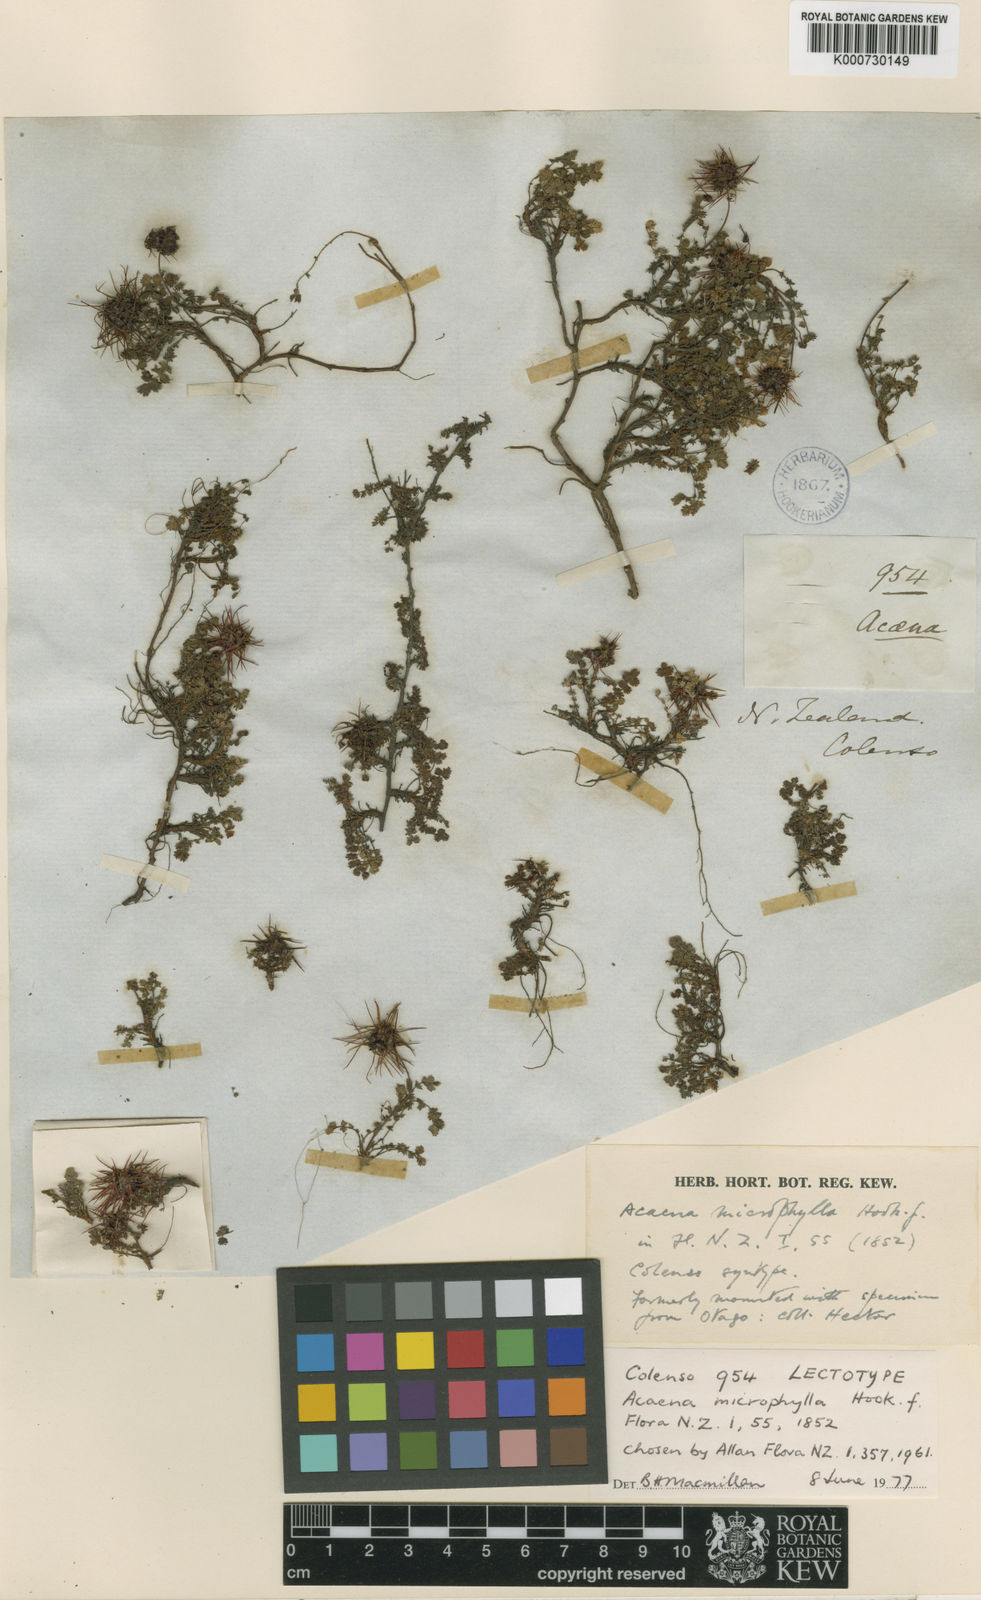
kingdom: Plantae
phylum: Tracheophyta
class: Magnoliopsida
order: Rosales
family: Rosaceae
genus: Acaena
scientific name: Acaena microphylla
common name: New zealand-bur
